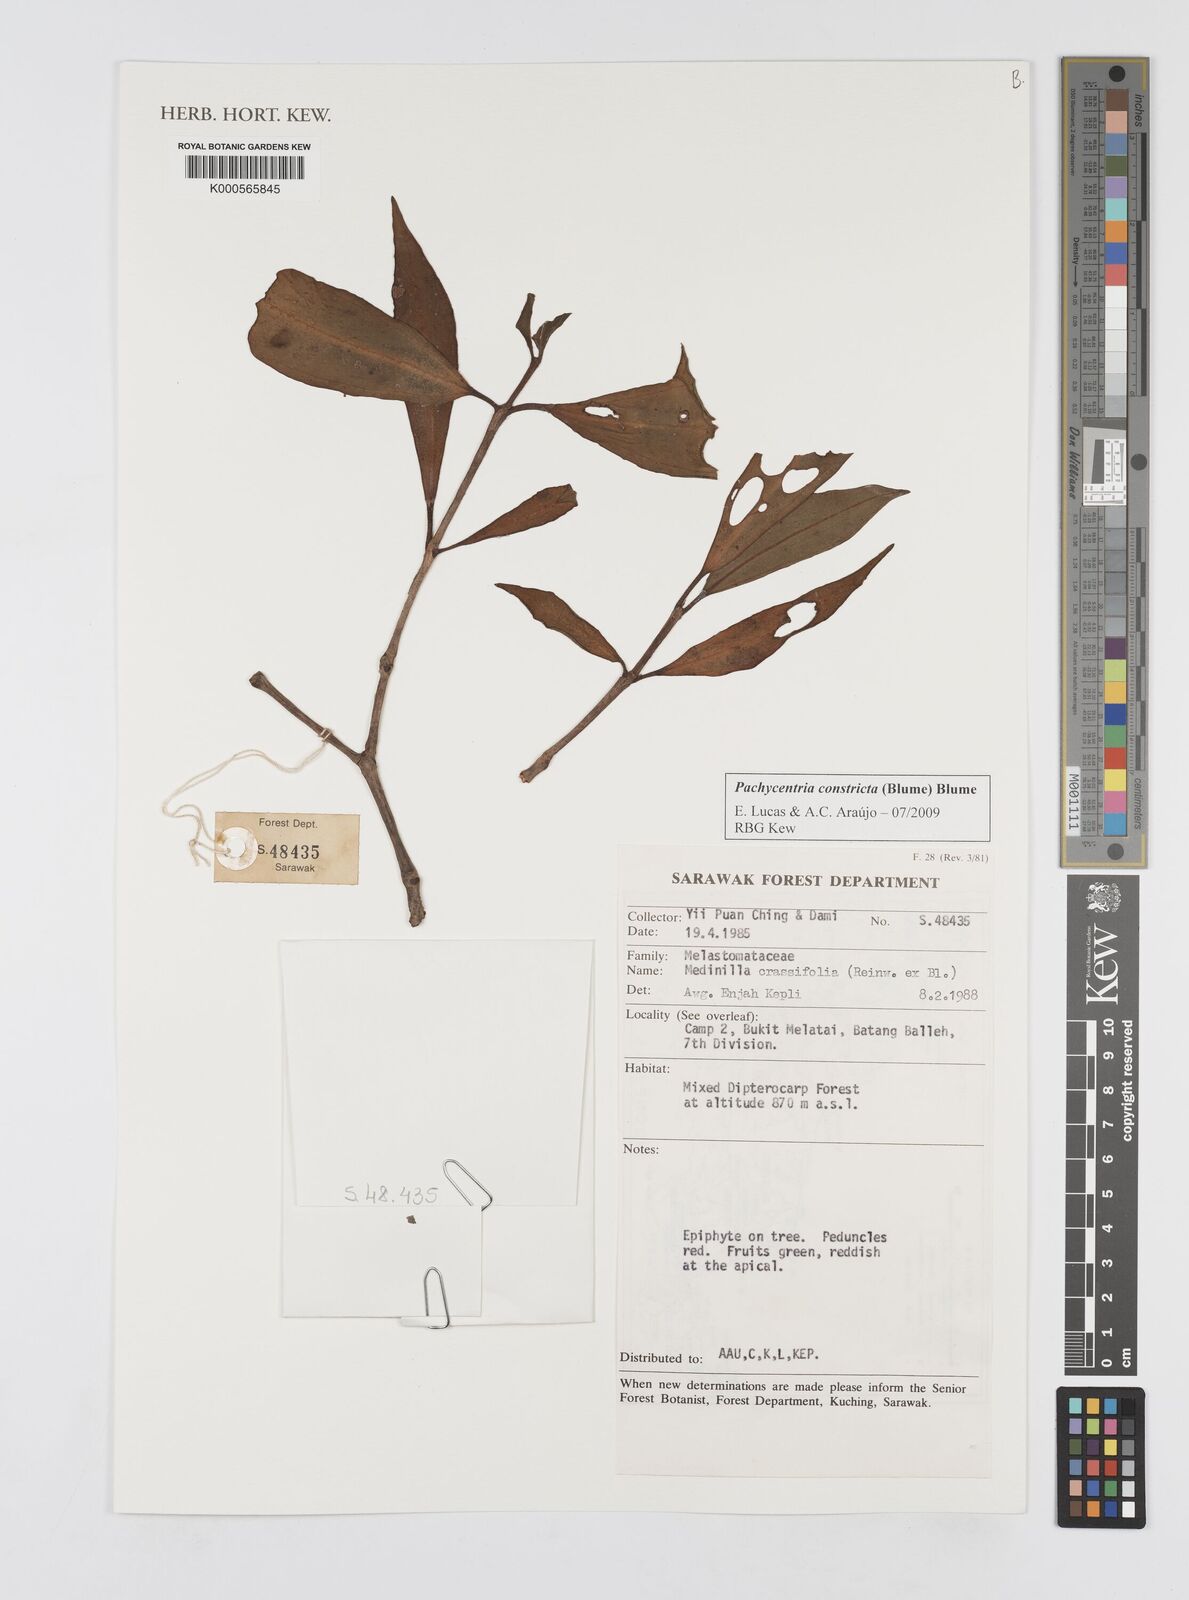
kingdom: Plantae
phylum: Tracheophyta
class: Magnoliopsida
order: Myrtales
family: Melastomataceae
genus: Pachycentria
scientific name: Pachycentria constricta
